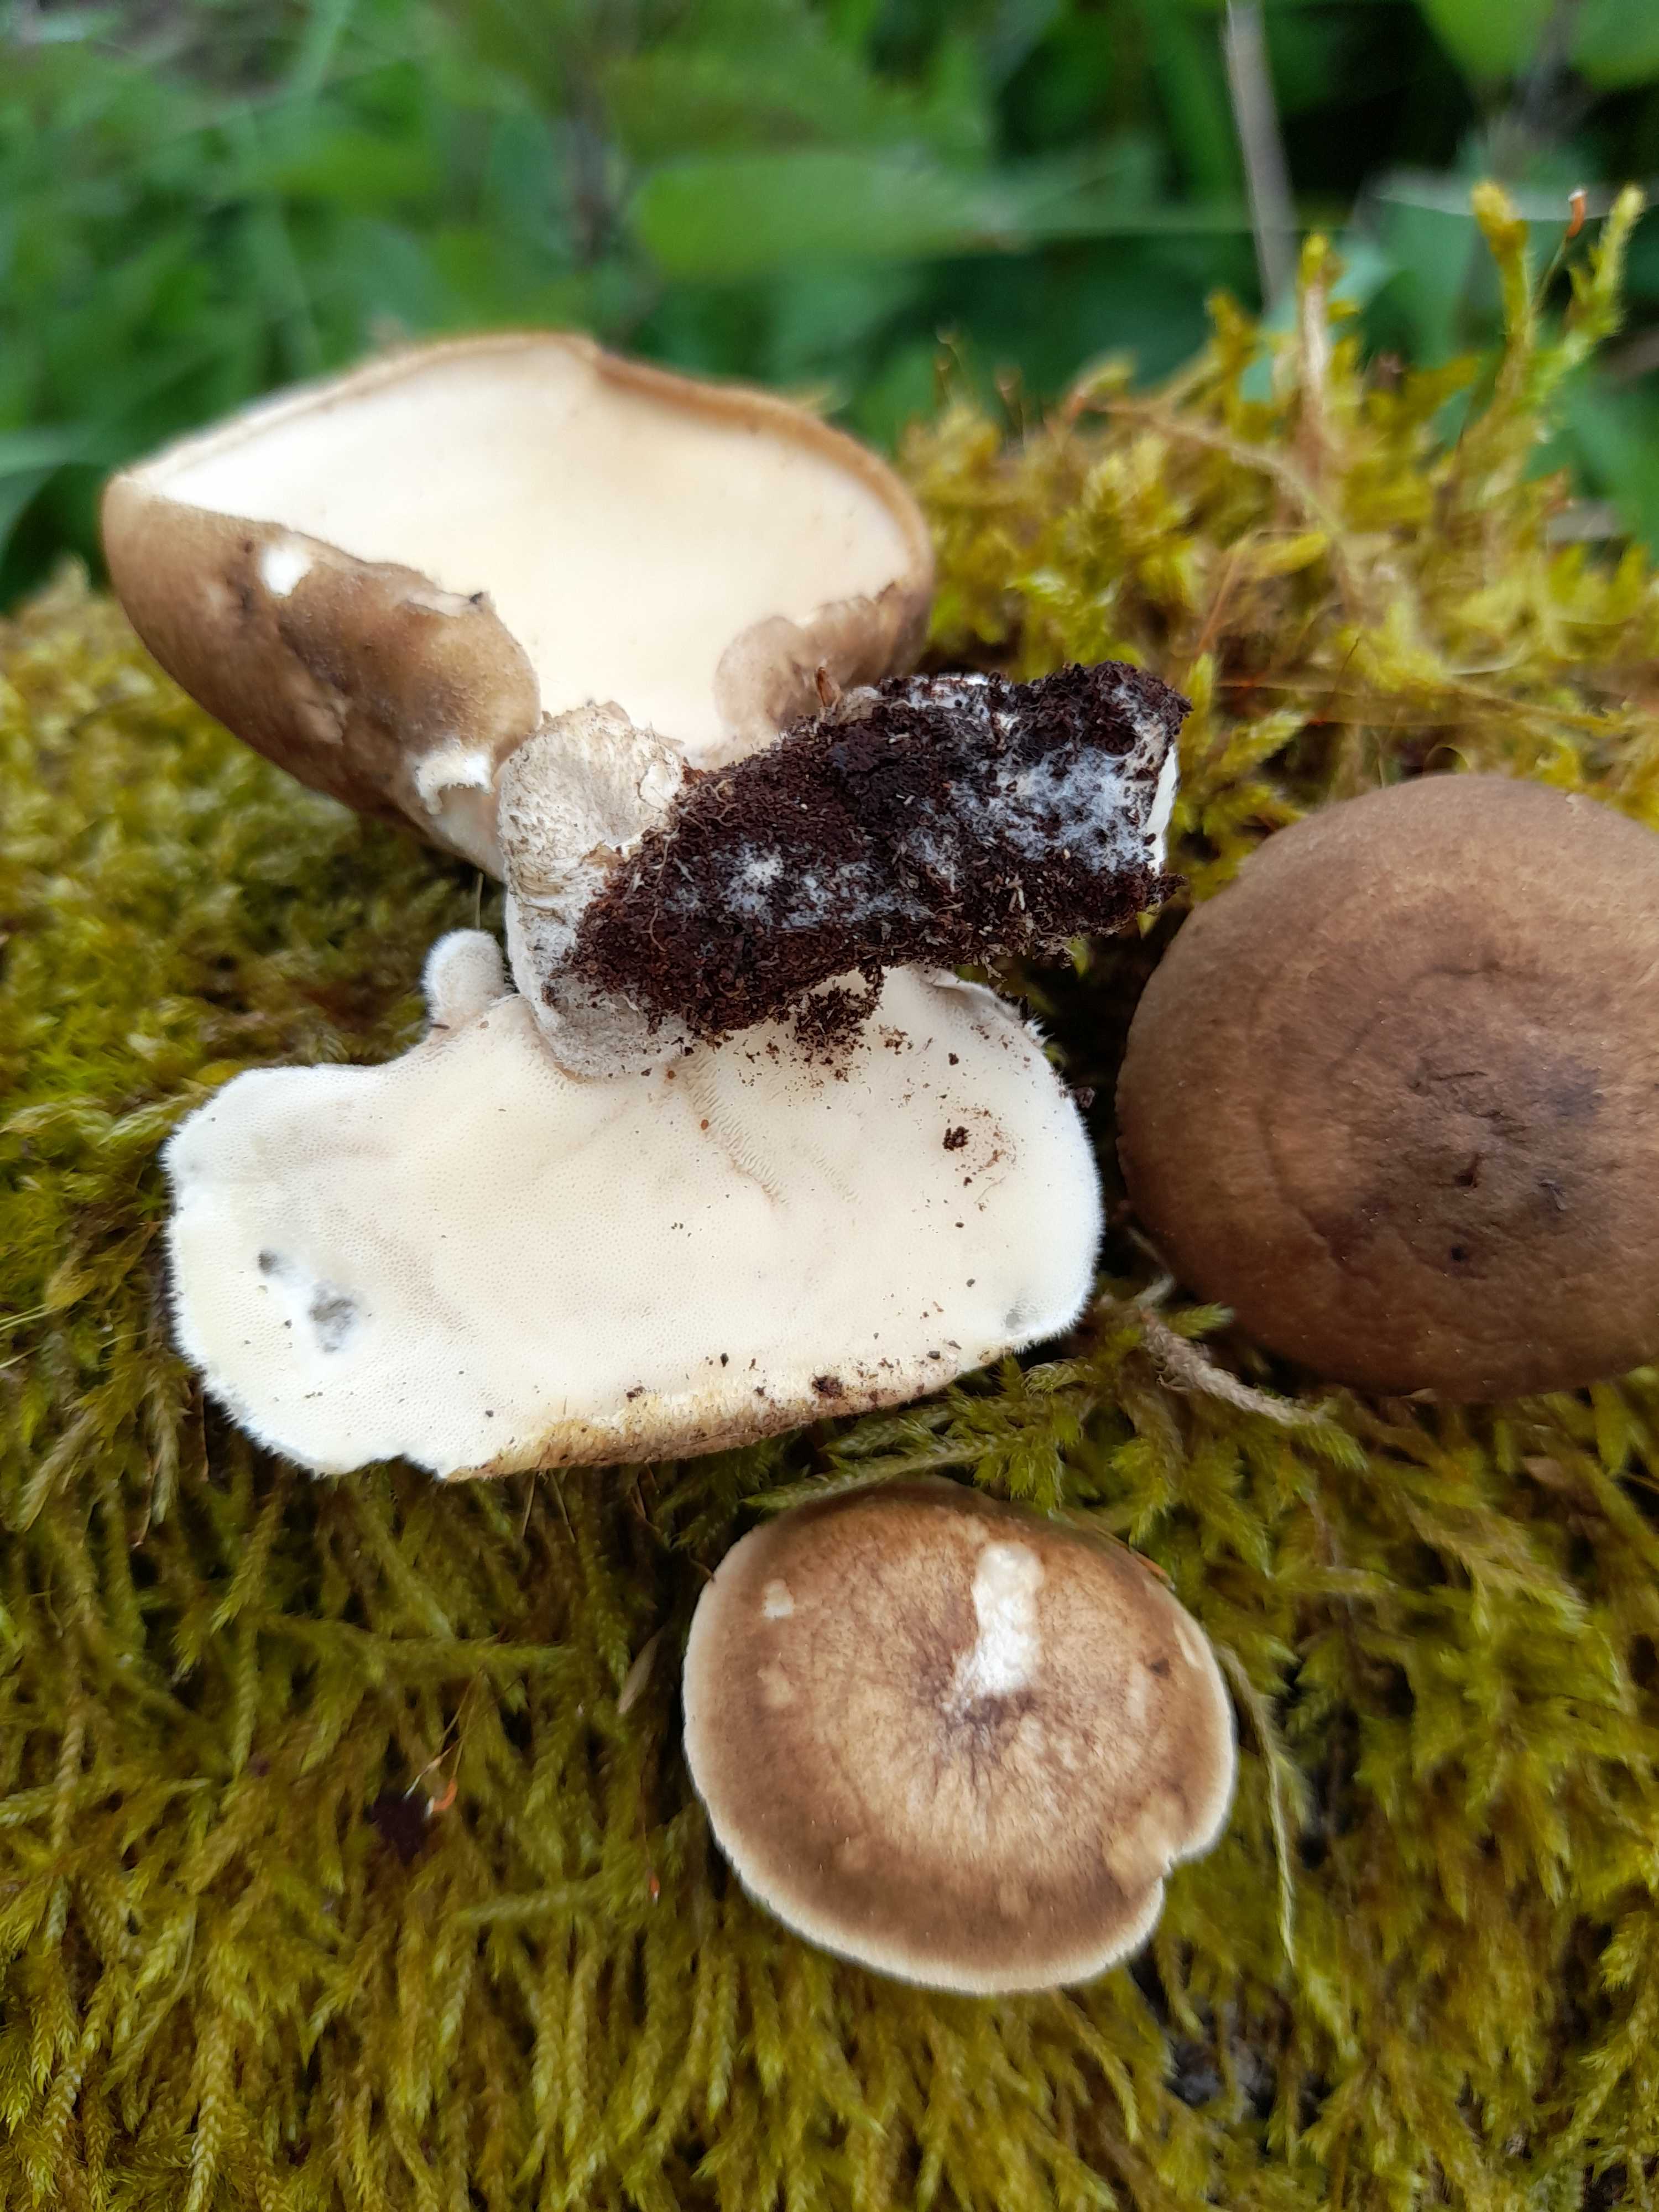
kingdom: Fungi
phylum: Basidiomycota
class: Agaricomycetes
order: Polyporales
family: Polyporaceae
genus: Lentinus
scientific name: Lentinus substrictus
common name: forårs-stilkporesvamp
